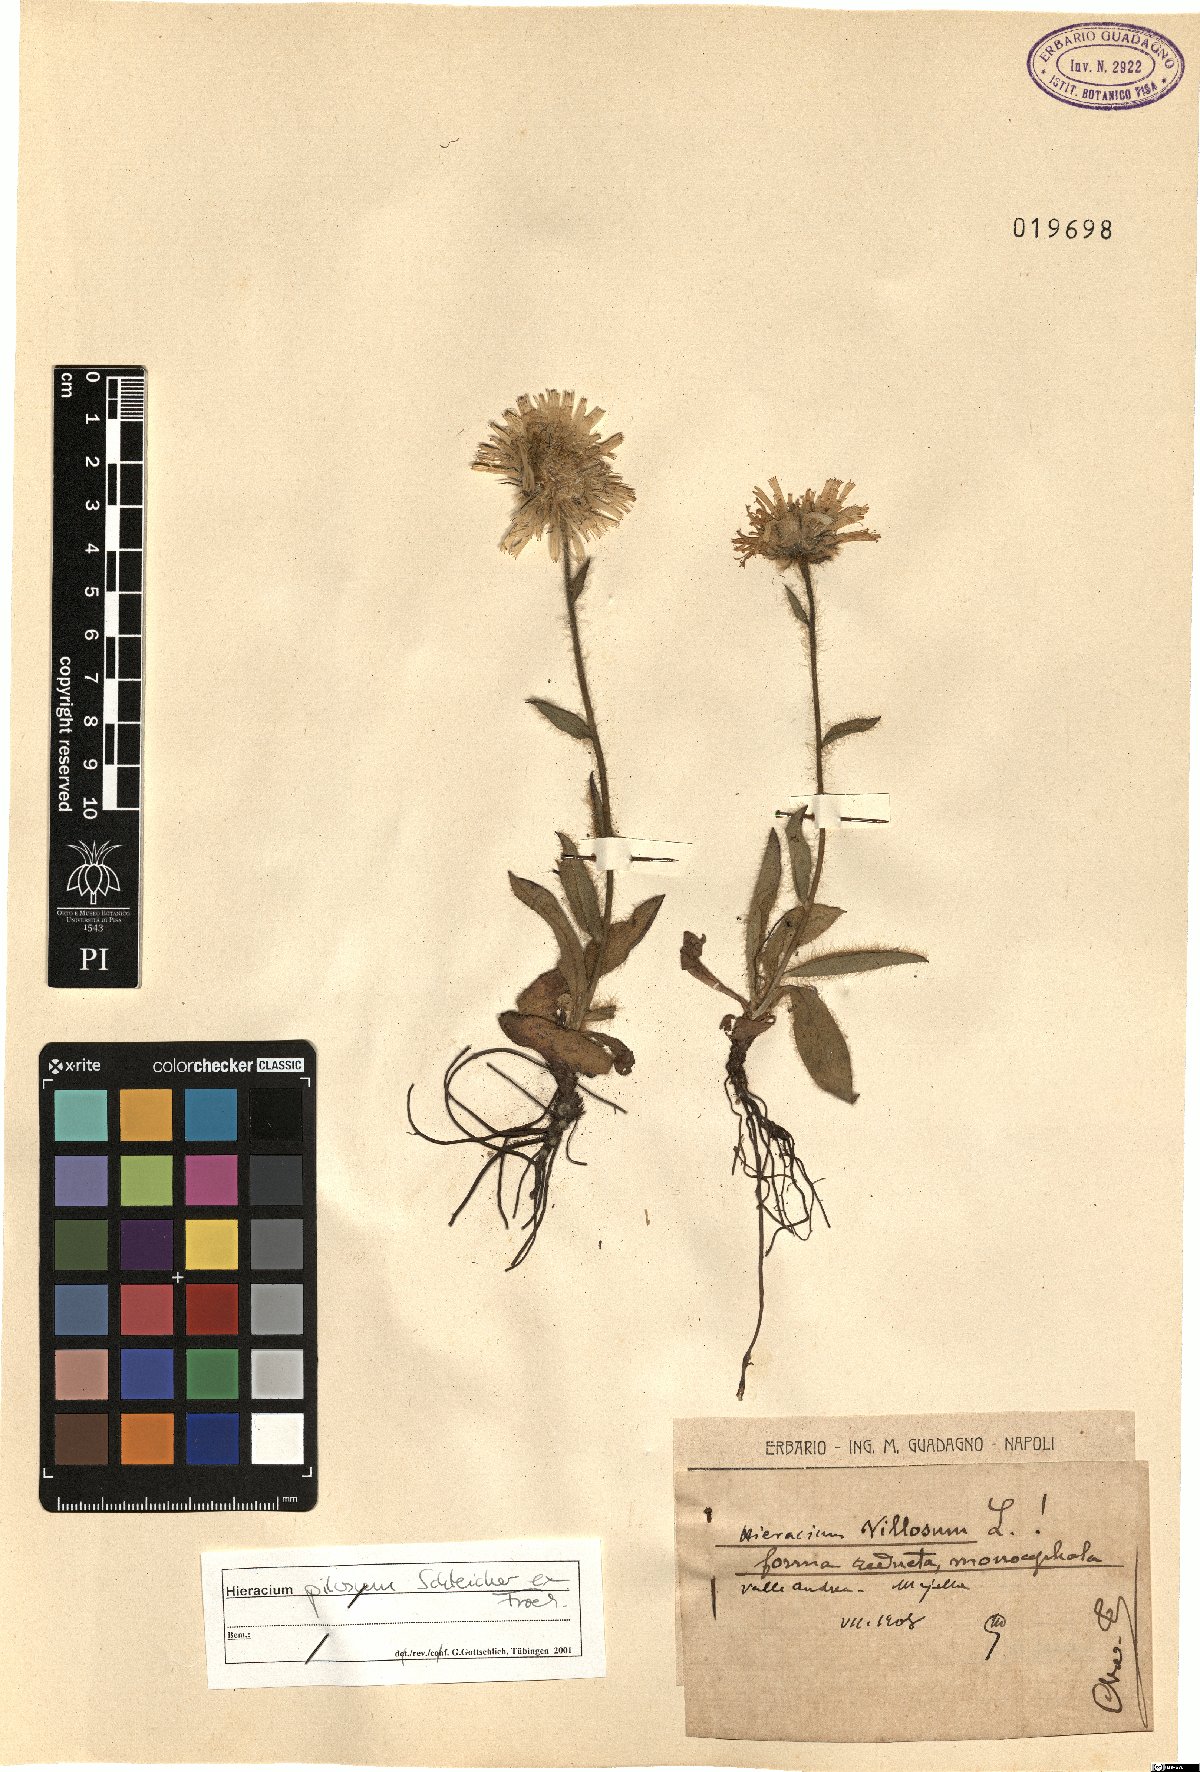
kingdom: Plantae
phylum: Tracheophyta
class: Magnoliopsida
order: Asterales
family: Asteraceae
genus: Hieracium
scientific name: Hieracium pilosum
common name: Fimbriate-pitted hawkweed
